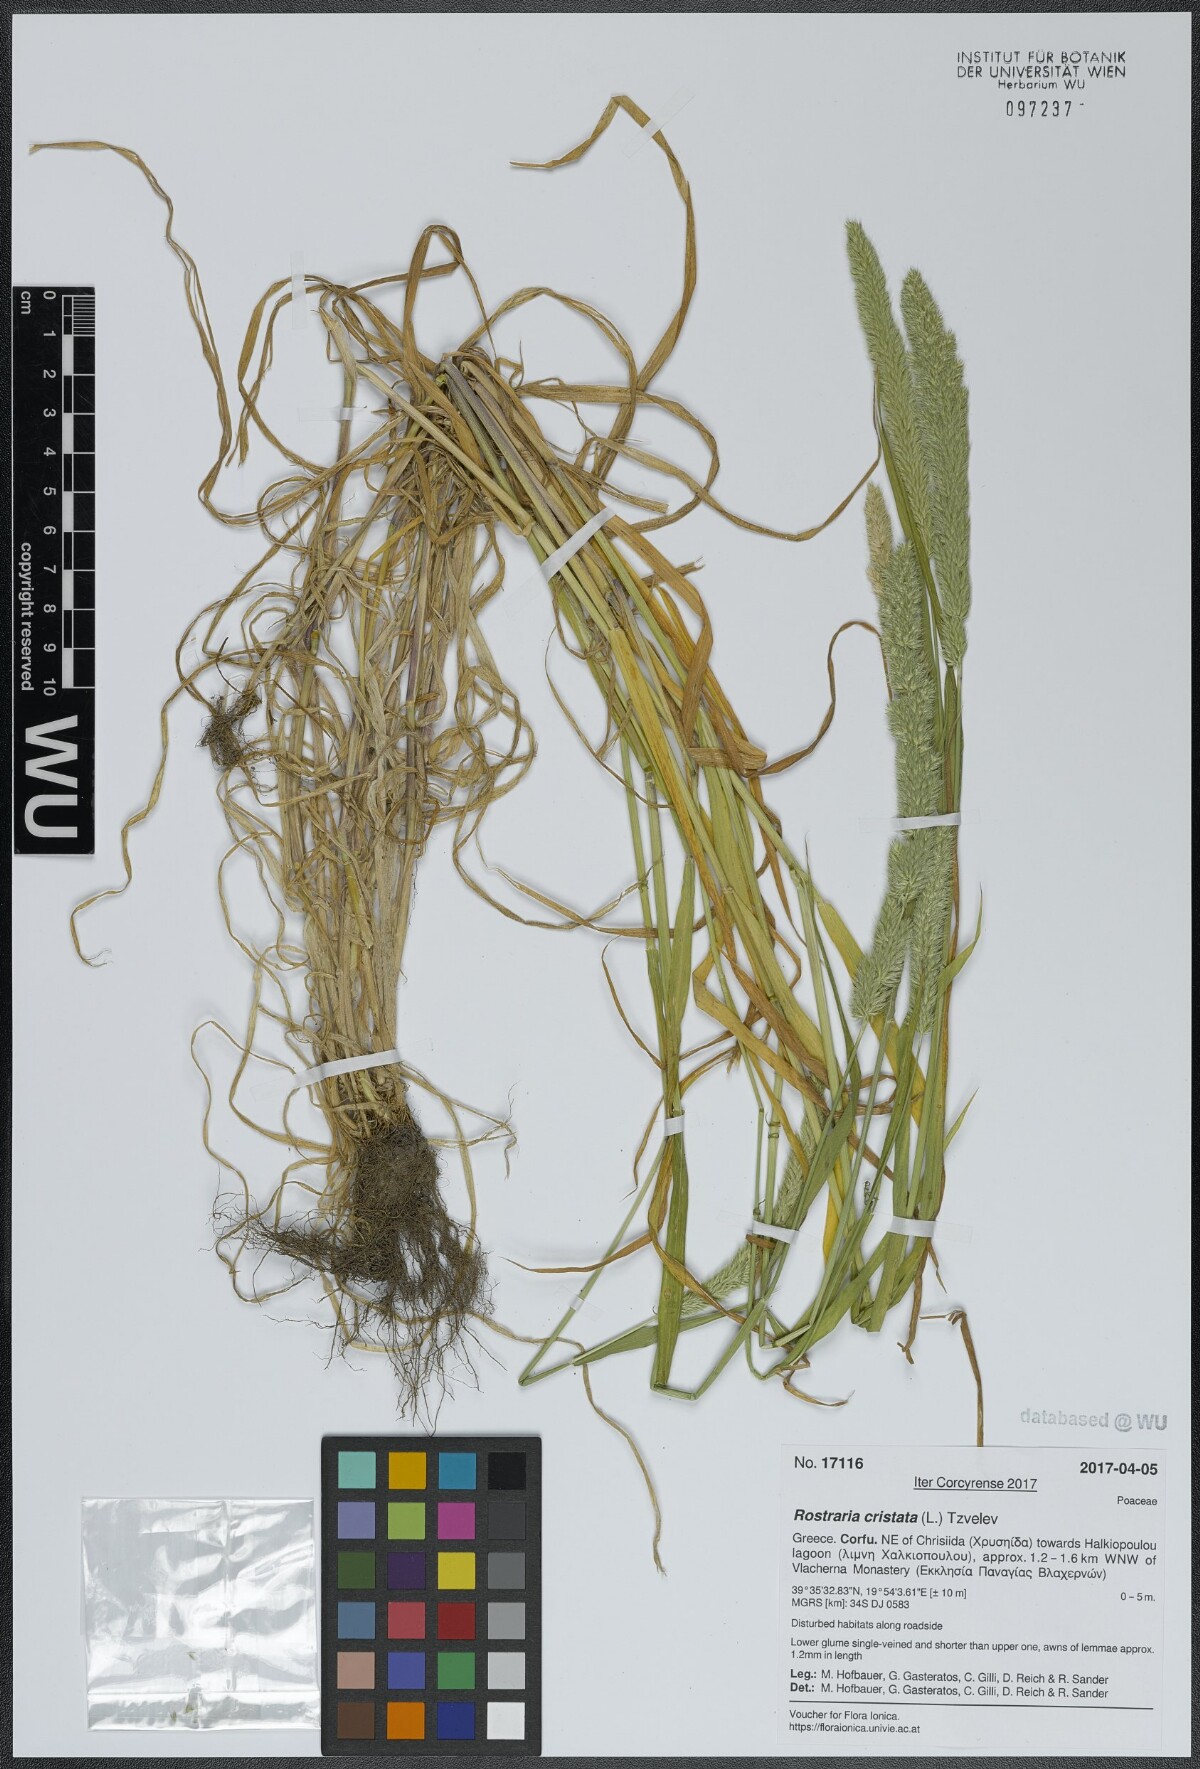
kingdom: Plantae
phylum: Tracheophyta
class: Liliopsida
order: Poales
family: Poaceae
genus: Rostraria
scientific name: Rostraria cristata
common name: Mediterranean hair-grass
